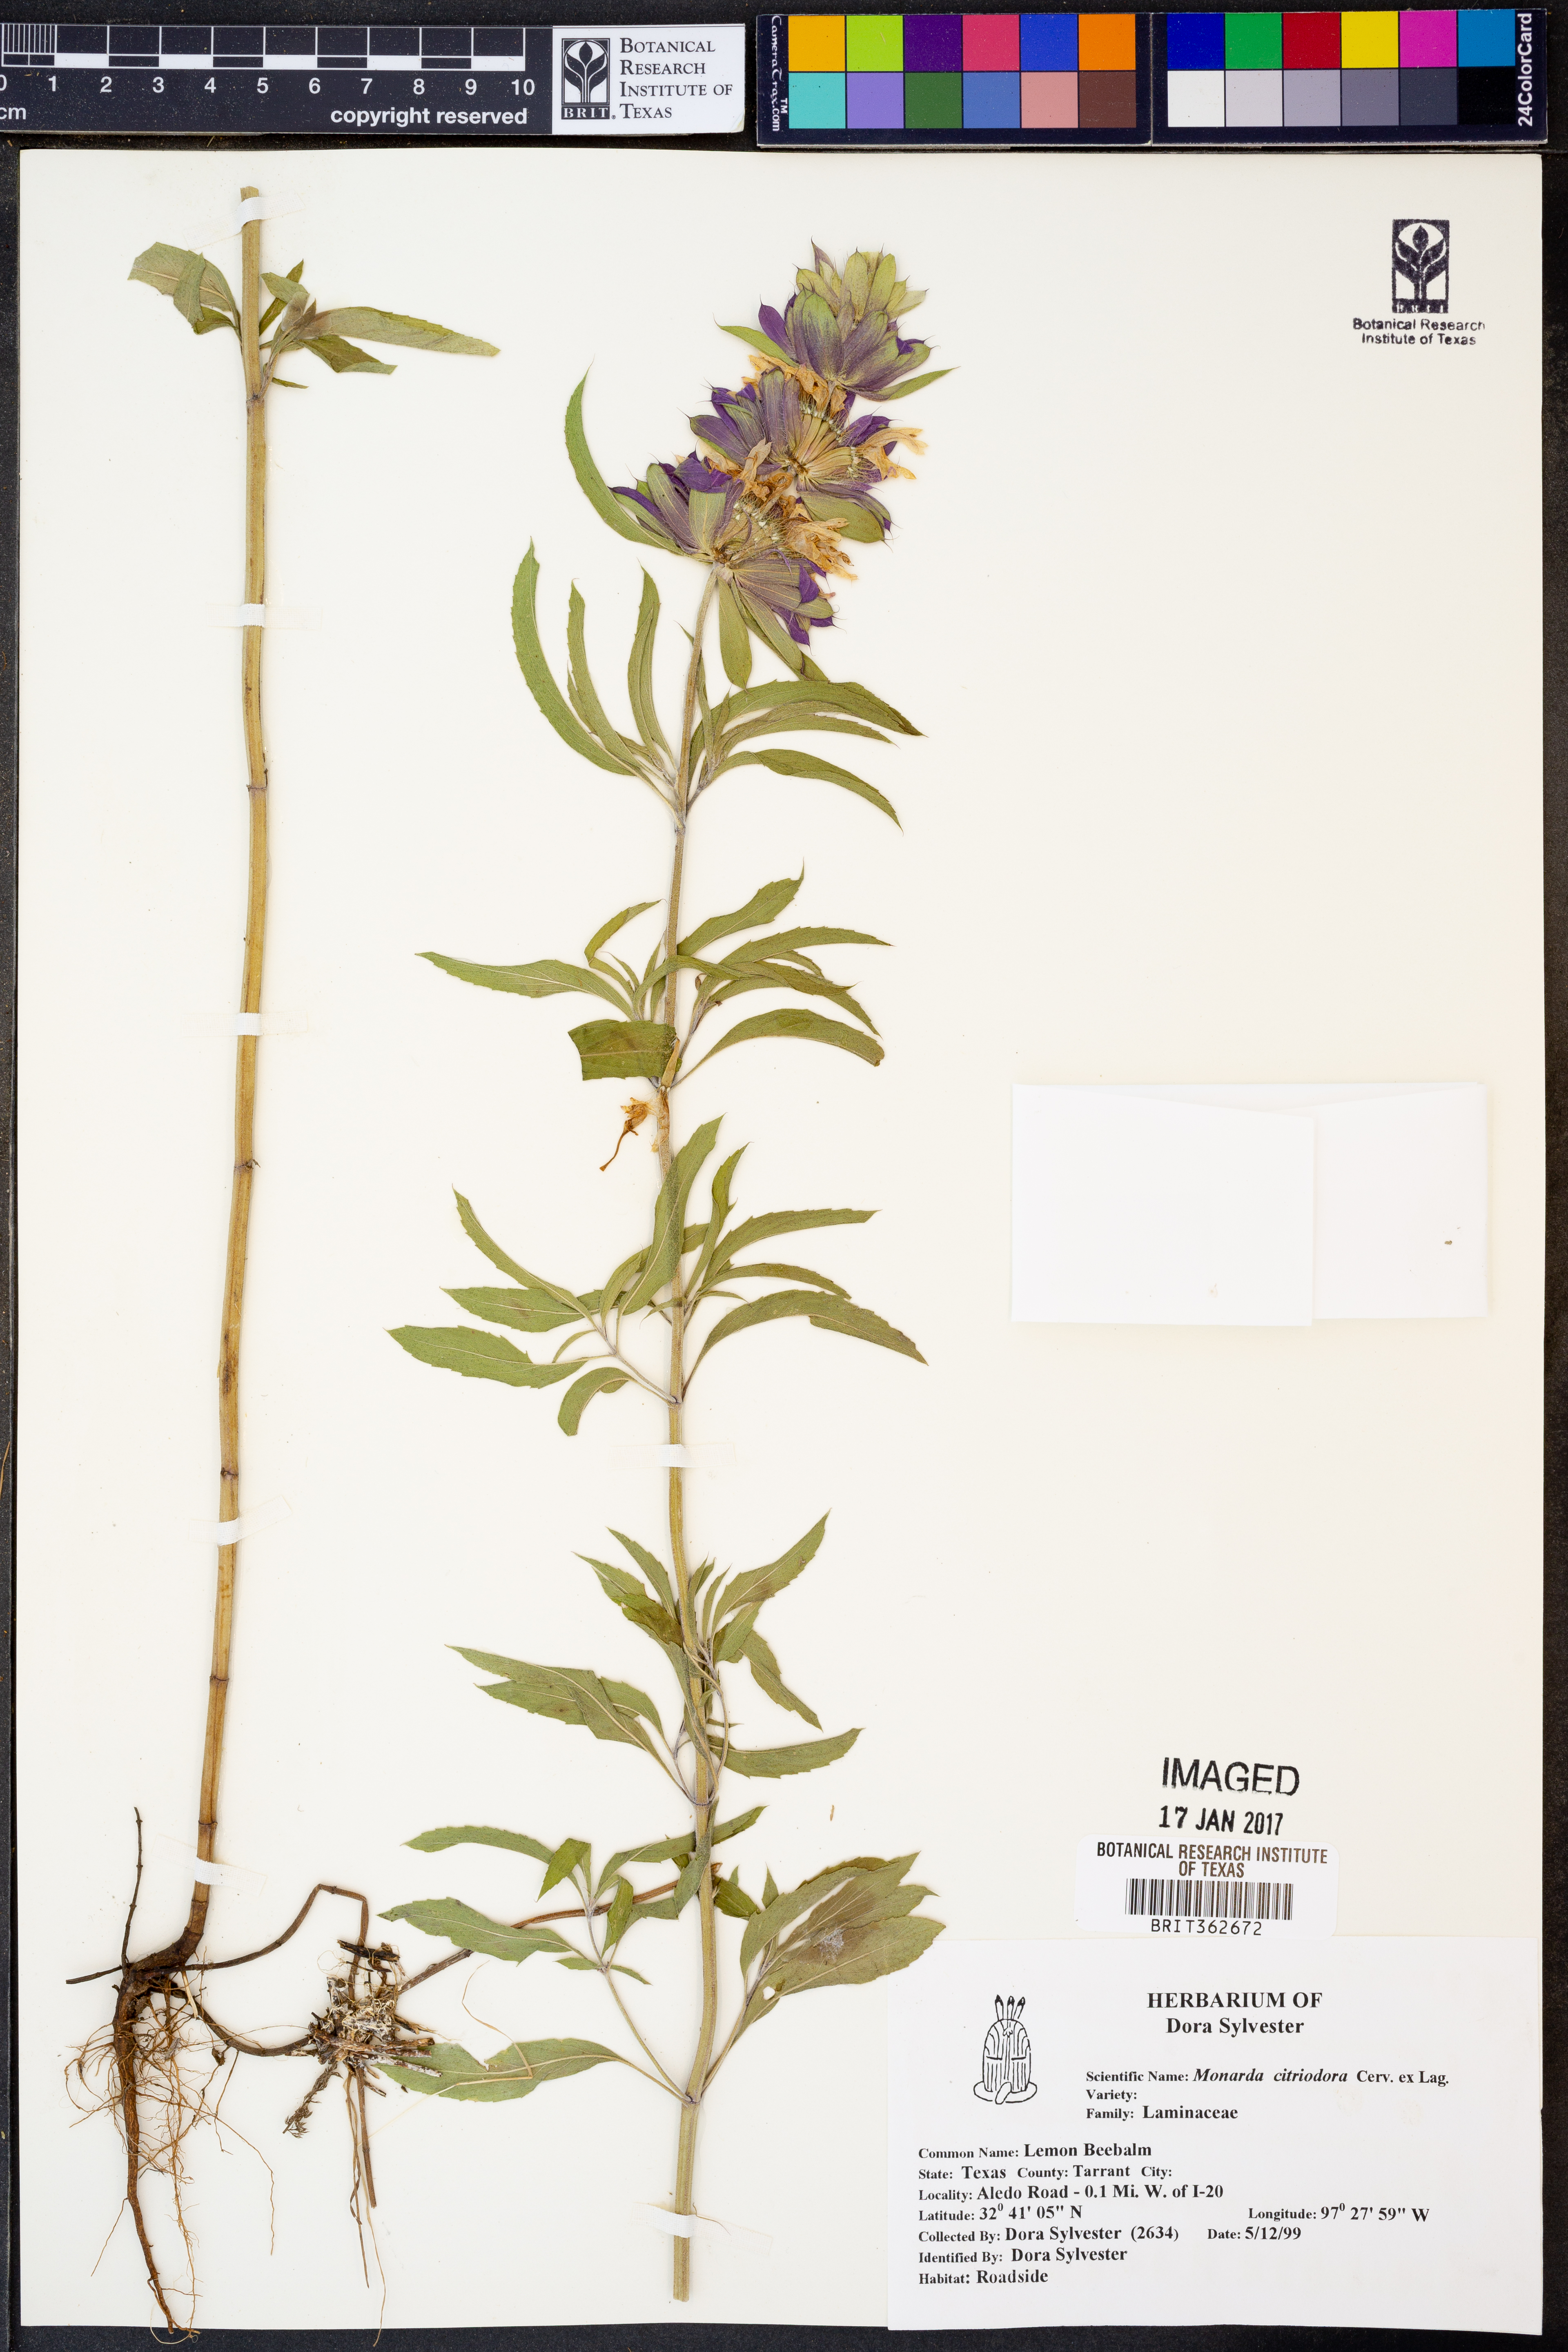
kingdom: Plantae
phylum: Tracheophyta
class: Magnoliopsida
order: Lamiales
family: Lamiaceae
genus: Monarda
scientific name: Monarda citriodora
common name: Lemon beebalm
